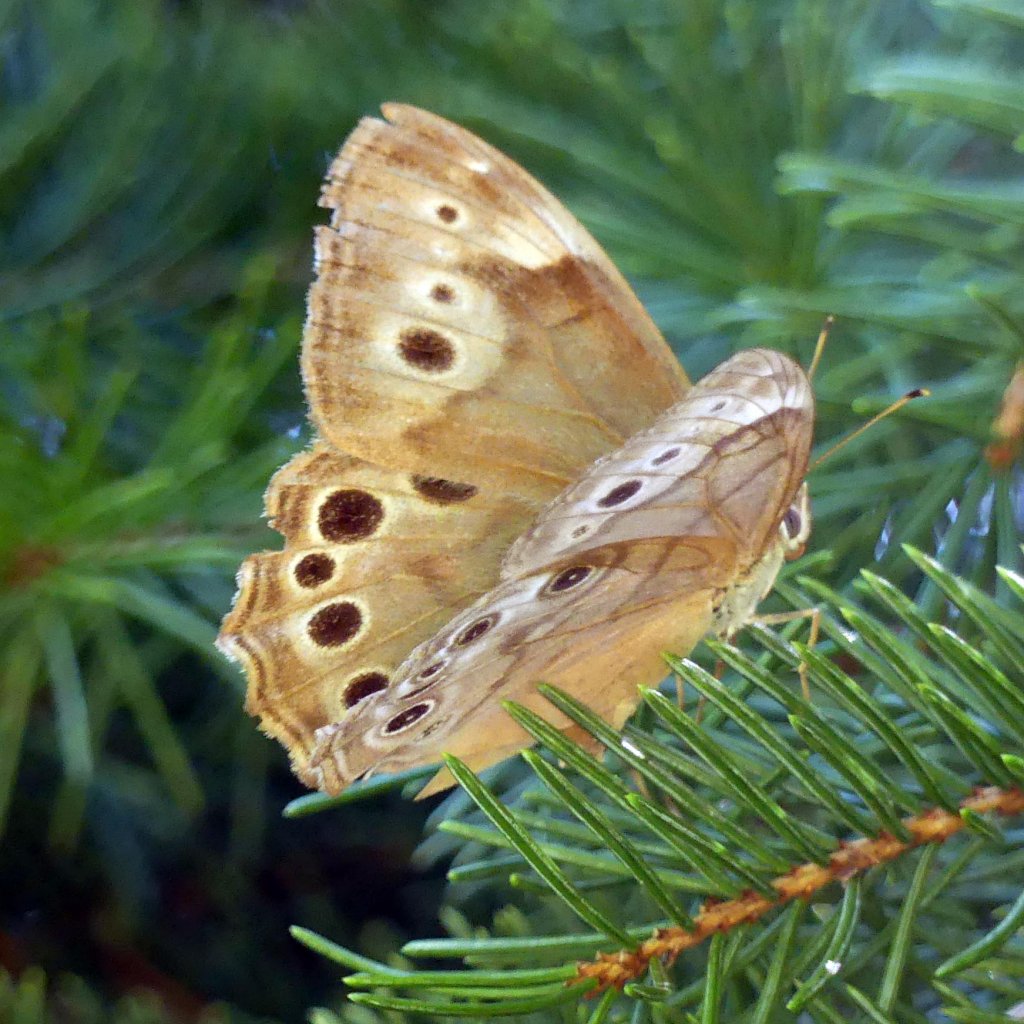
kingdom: Animalia
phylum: Arthropoda
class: Insecta
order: Lepidoptera
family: Nymphalidae
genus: Lethe
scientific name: Lethe anthedon
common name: Northern Pearly-Eye
